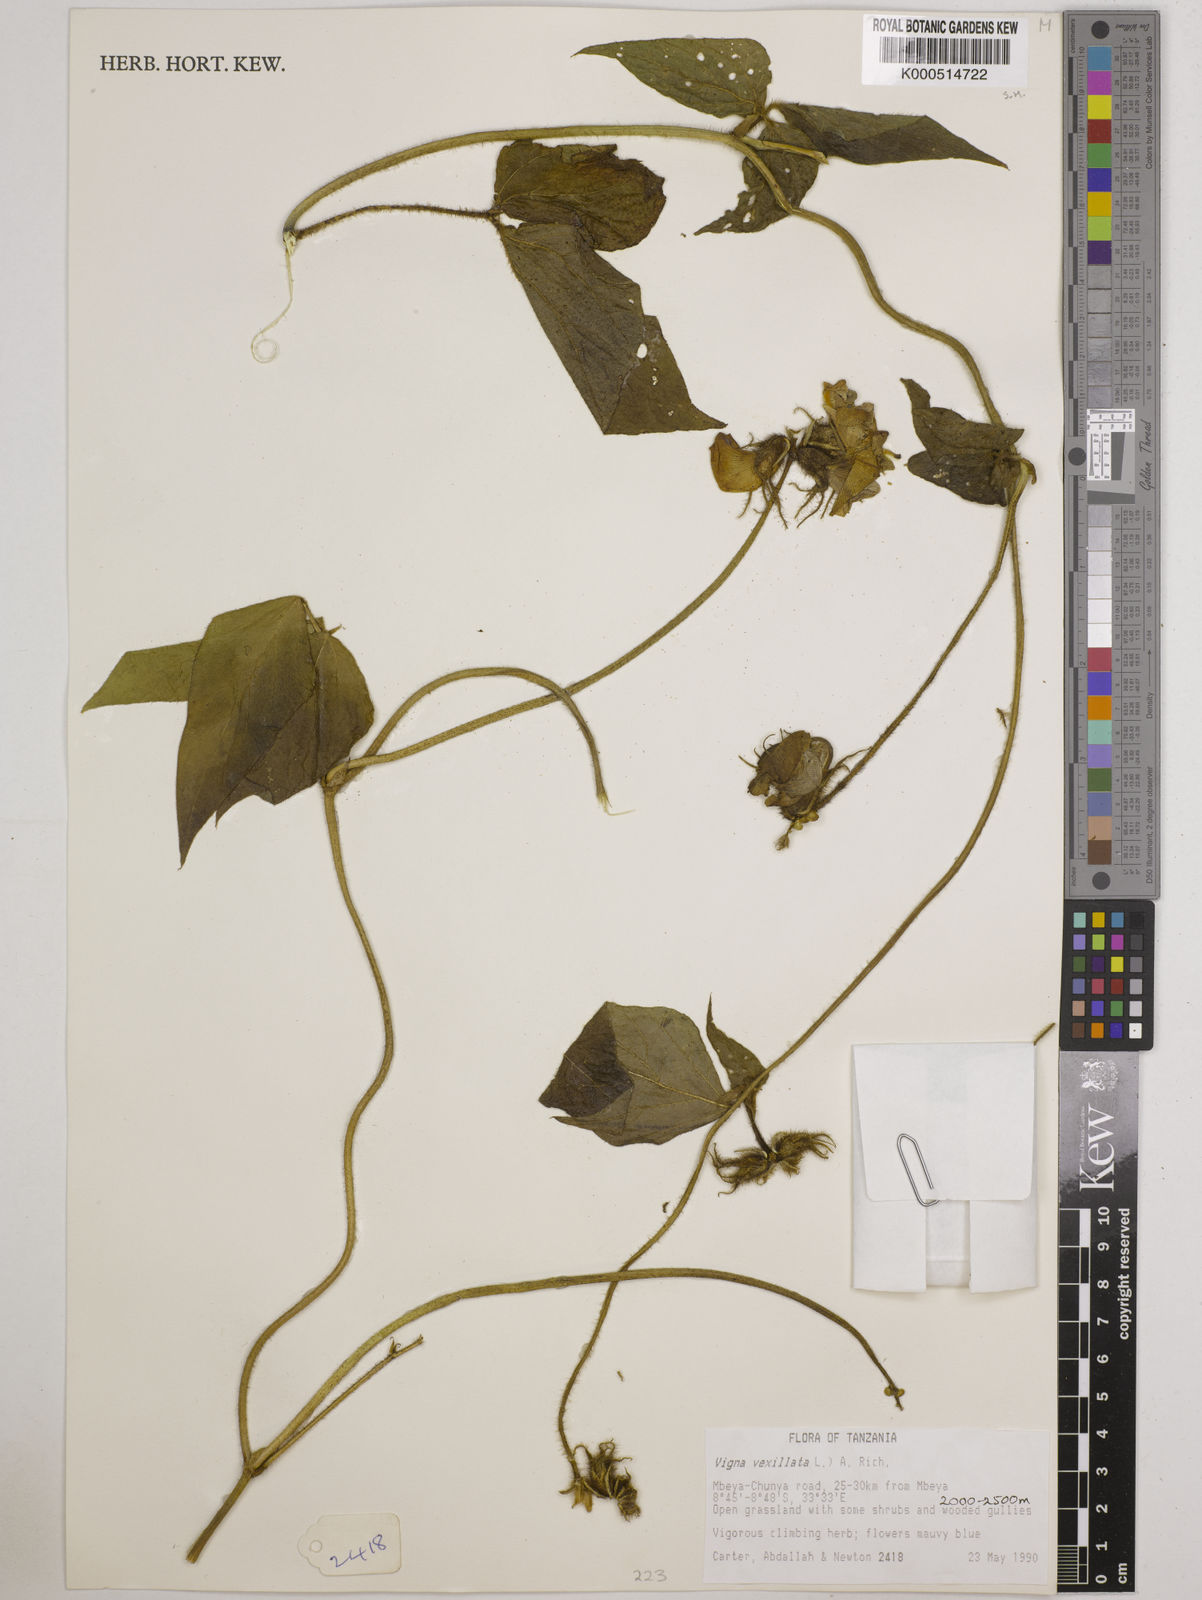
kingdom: Plantae
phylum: Tracheophyta
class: Magnoliopsida
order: Fabales
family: Fabaceae
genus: Vigna
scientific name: Vigna vexillata
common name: Zombi pea
